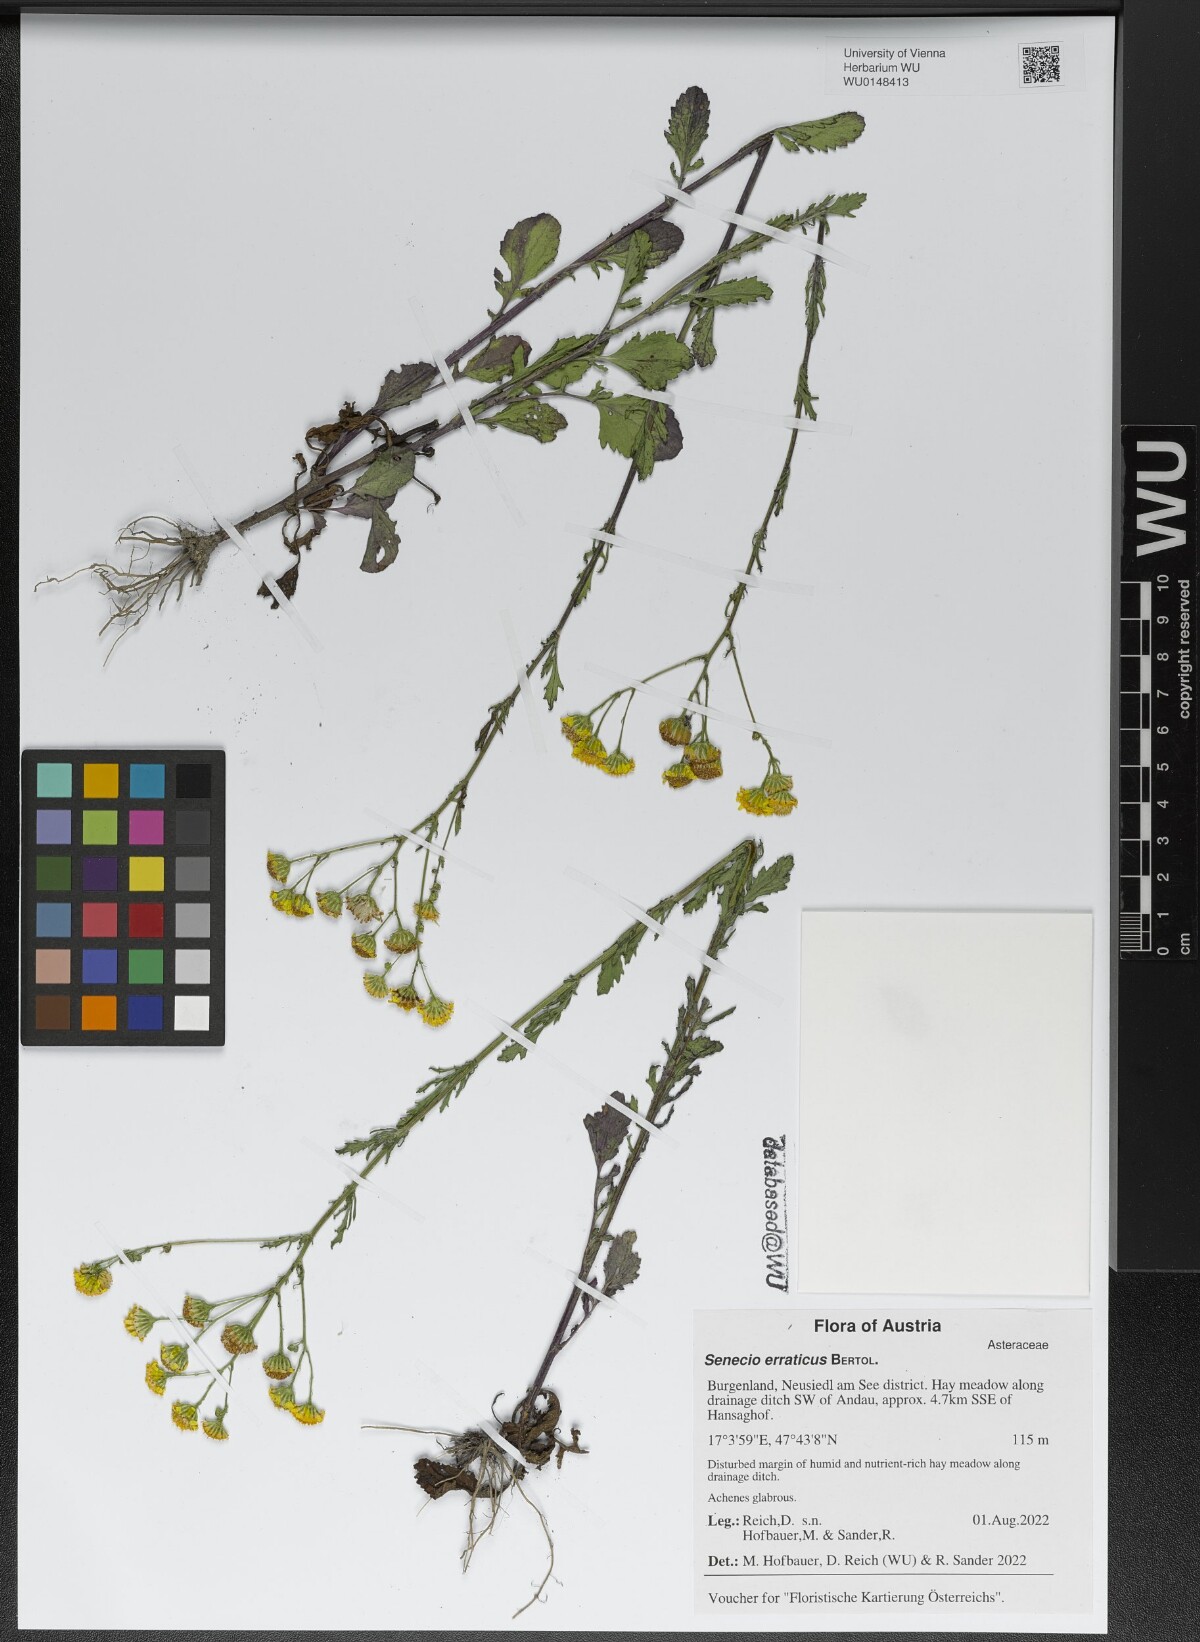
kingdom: Plantae
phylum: Tracheophyta
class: Magnoliopsida
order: Asterales
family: Asteraceae
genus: Jacobaea
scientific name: Jacobaea erratica
